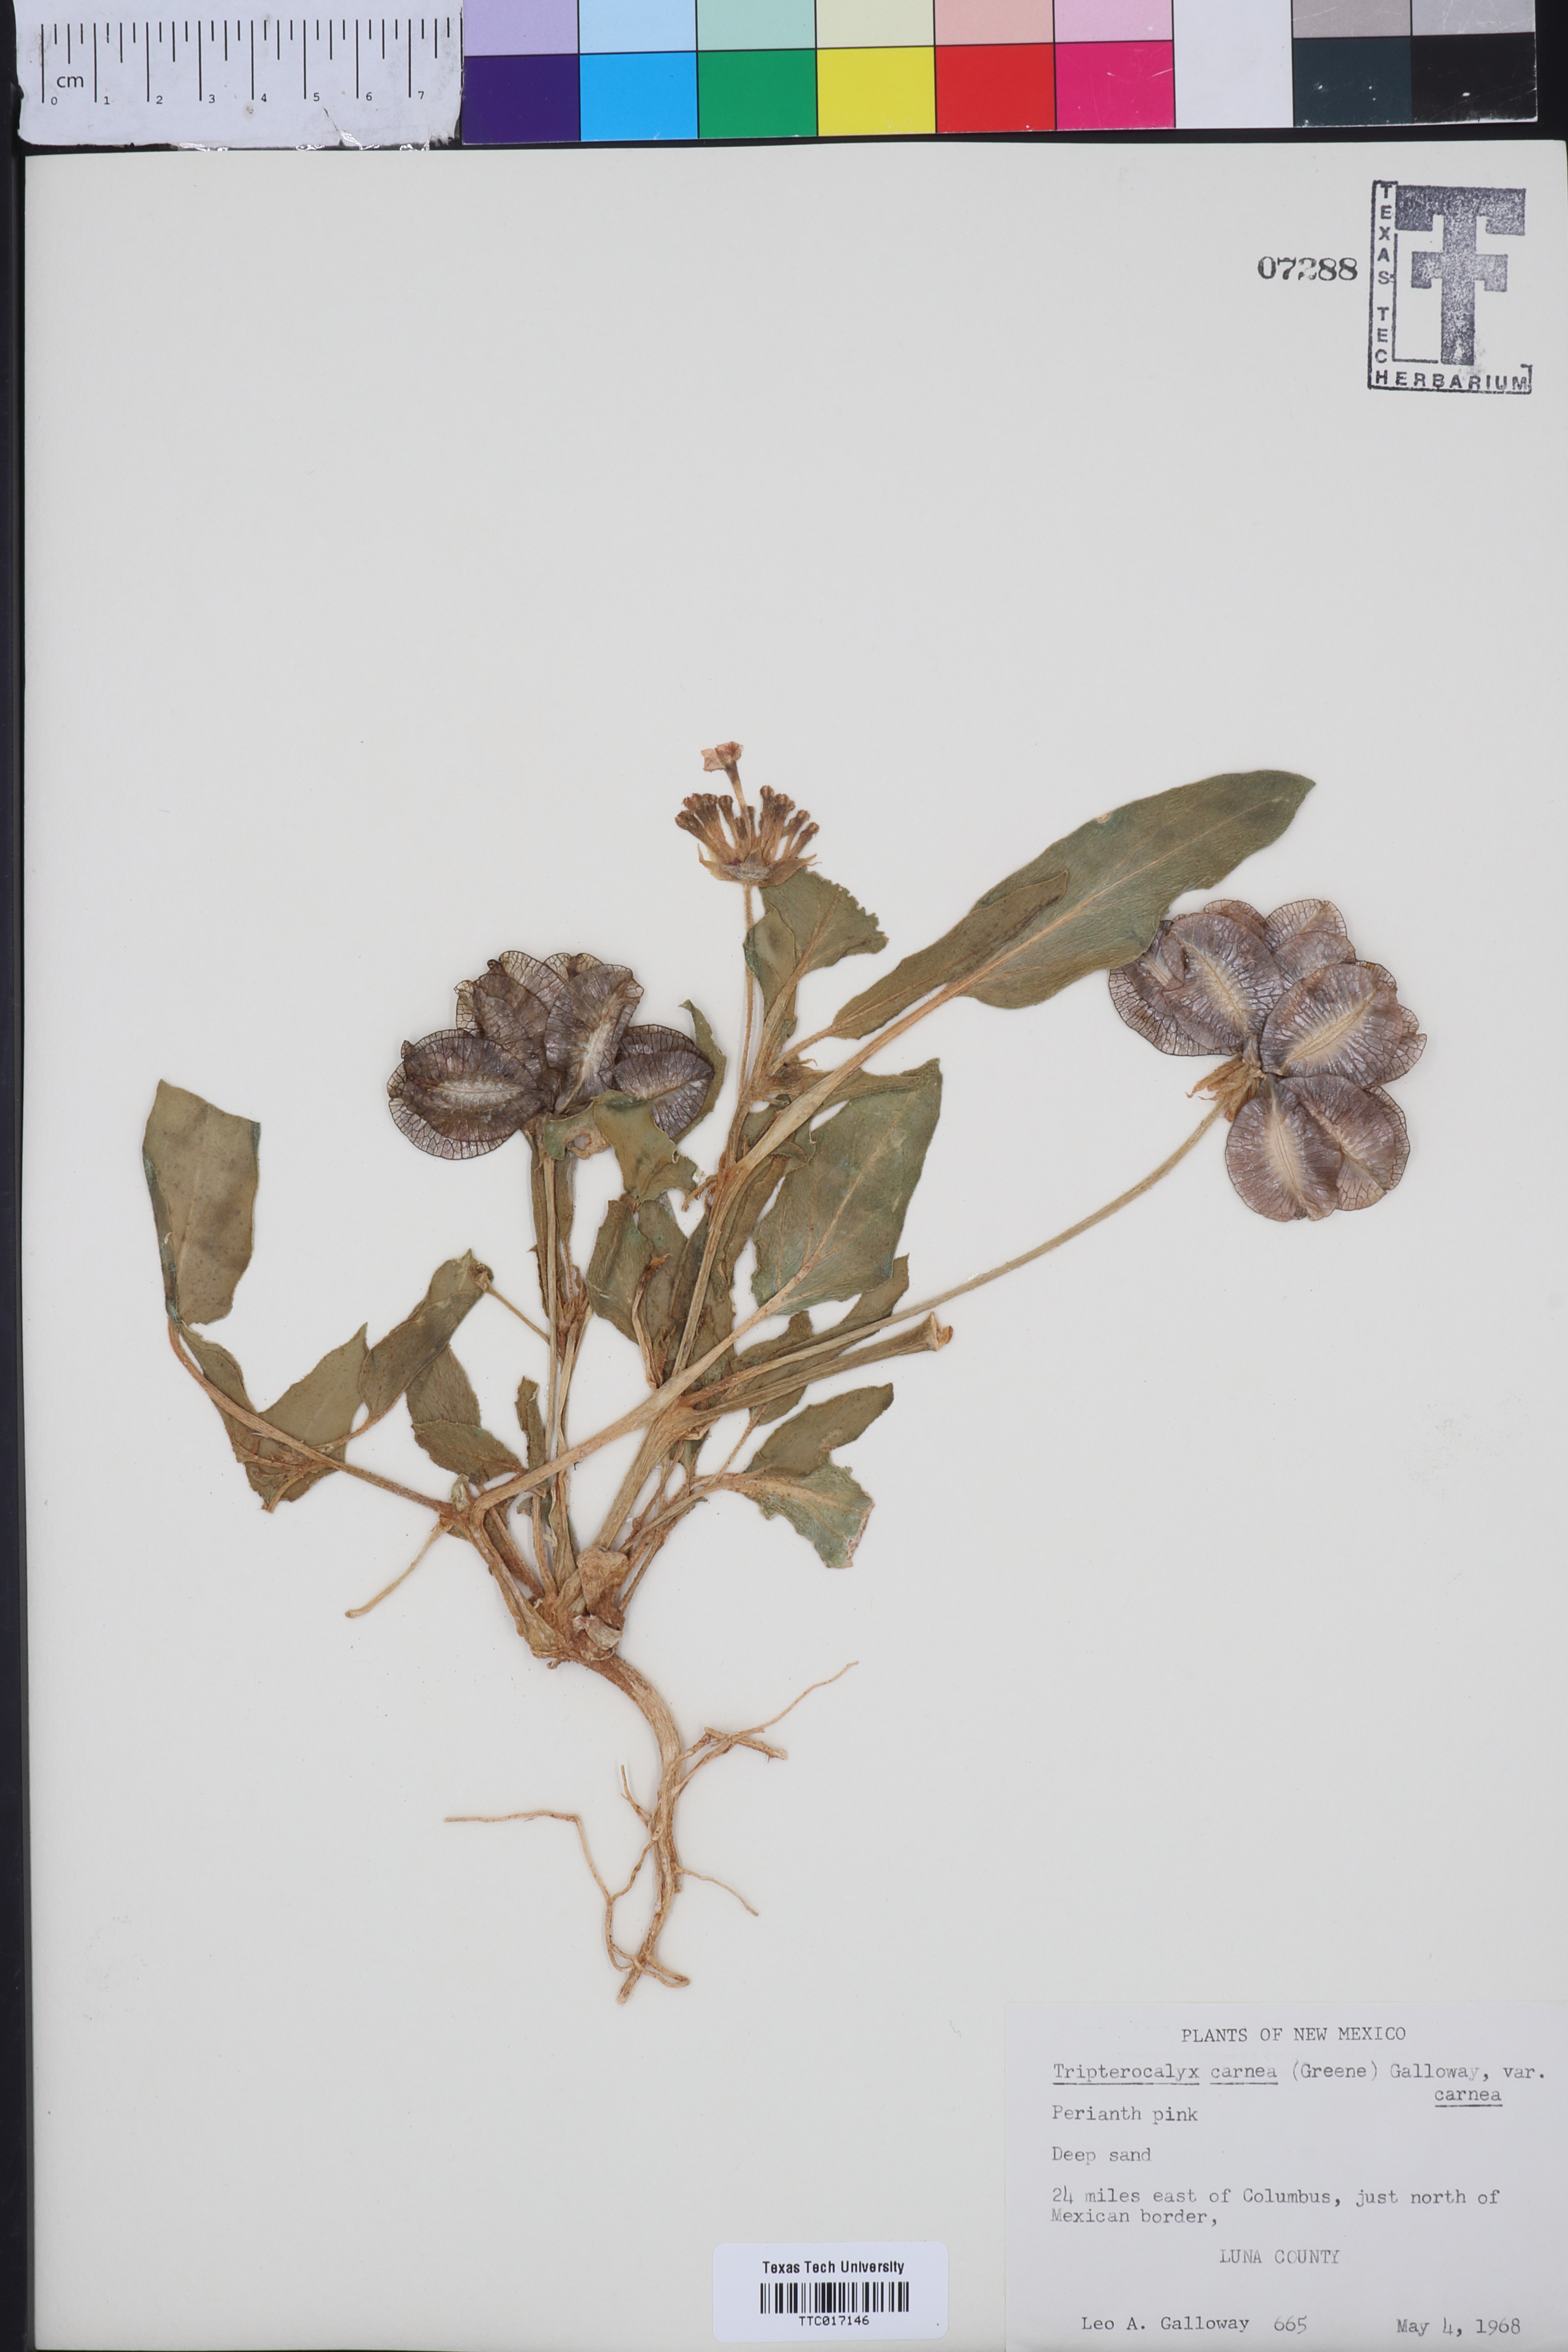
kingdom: Plantae
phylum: Tracheophyta
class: Magnoliopsida
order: Caryophyllales
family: Nyctaginaceae
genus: Tripterocalyx
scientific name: Tripterocalyx carneus
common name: Winged sandpuffs
